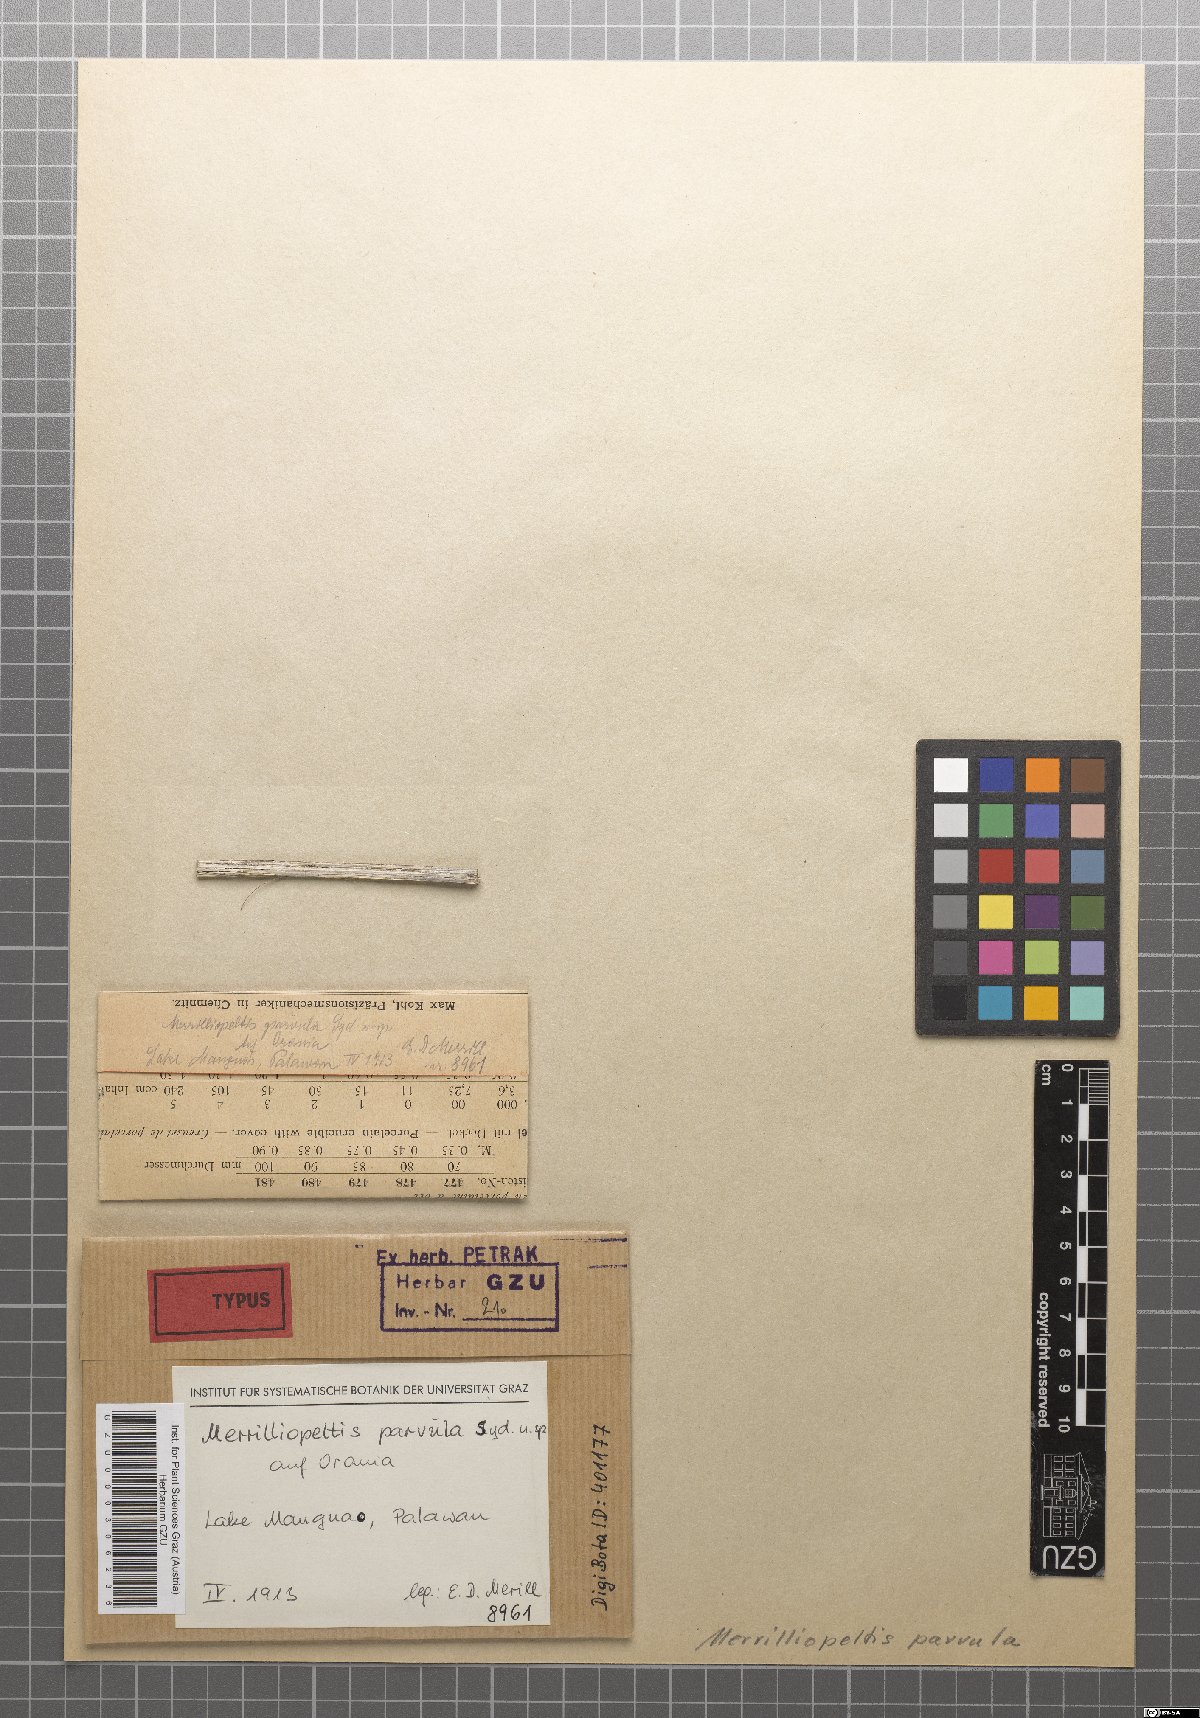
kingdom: Fungi
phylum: Ascomycota
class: Sordariomycetes
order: Xylariales
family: Oxydothidaceae
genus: Oxydothis
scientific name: Oxydothis parvula
